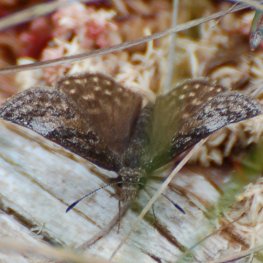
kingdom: Animalia
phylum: Arthropoda
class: Insecta
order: Lepidoptera
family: Hesperiidae
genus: Erynnis
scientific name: Erynnis icelus
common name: Dreamy Duskywing
